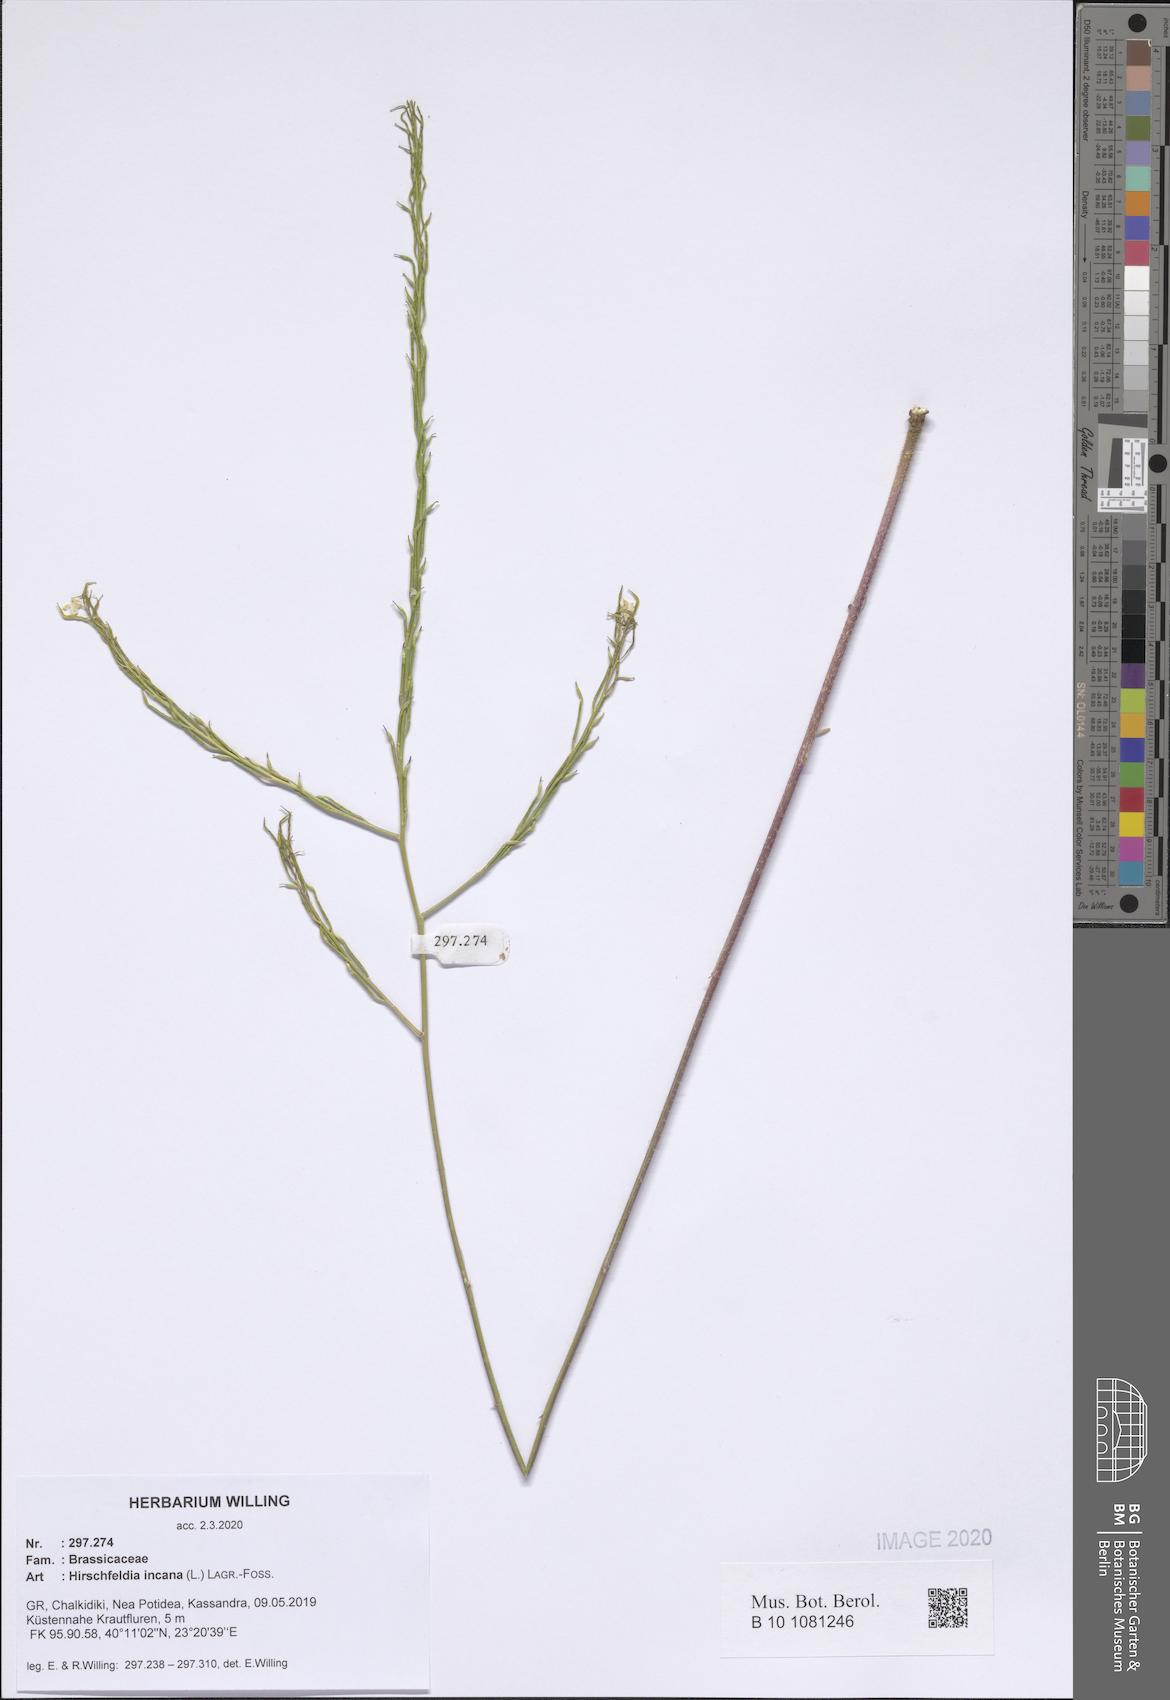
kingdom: Plantae
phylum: Tracheophyta
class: Magnoliopsida
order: Brassicales
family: Brassicaceae
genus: Hirschfeldia
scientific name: Hirschfeldia incana
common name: Hoary mustard
